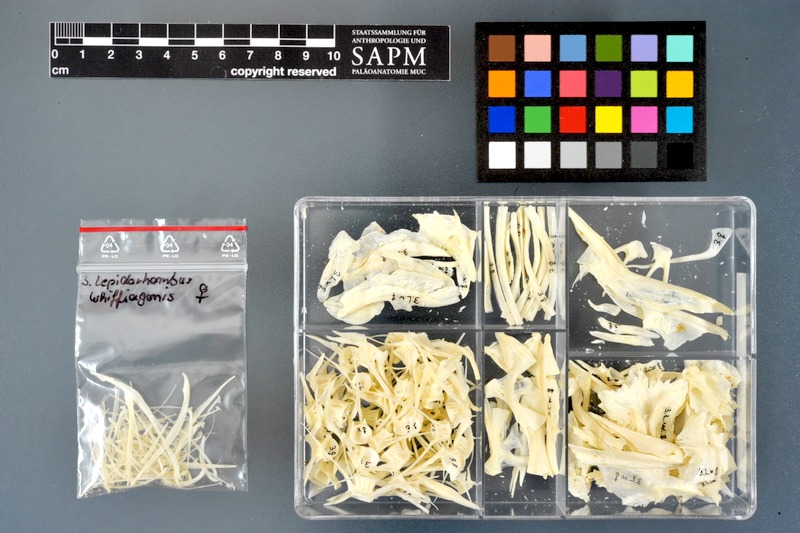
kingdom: Animalia
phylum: Chordata
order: Pleuronectiformes
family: Scophthalmidae
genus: Lepidorhombus
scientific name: Lepidorhombus whiffiagonis
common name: Megrim
